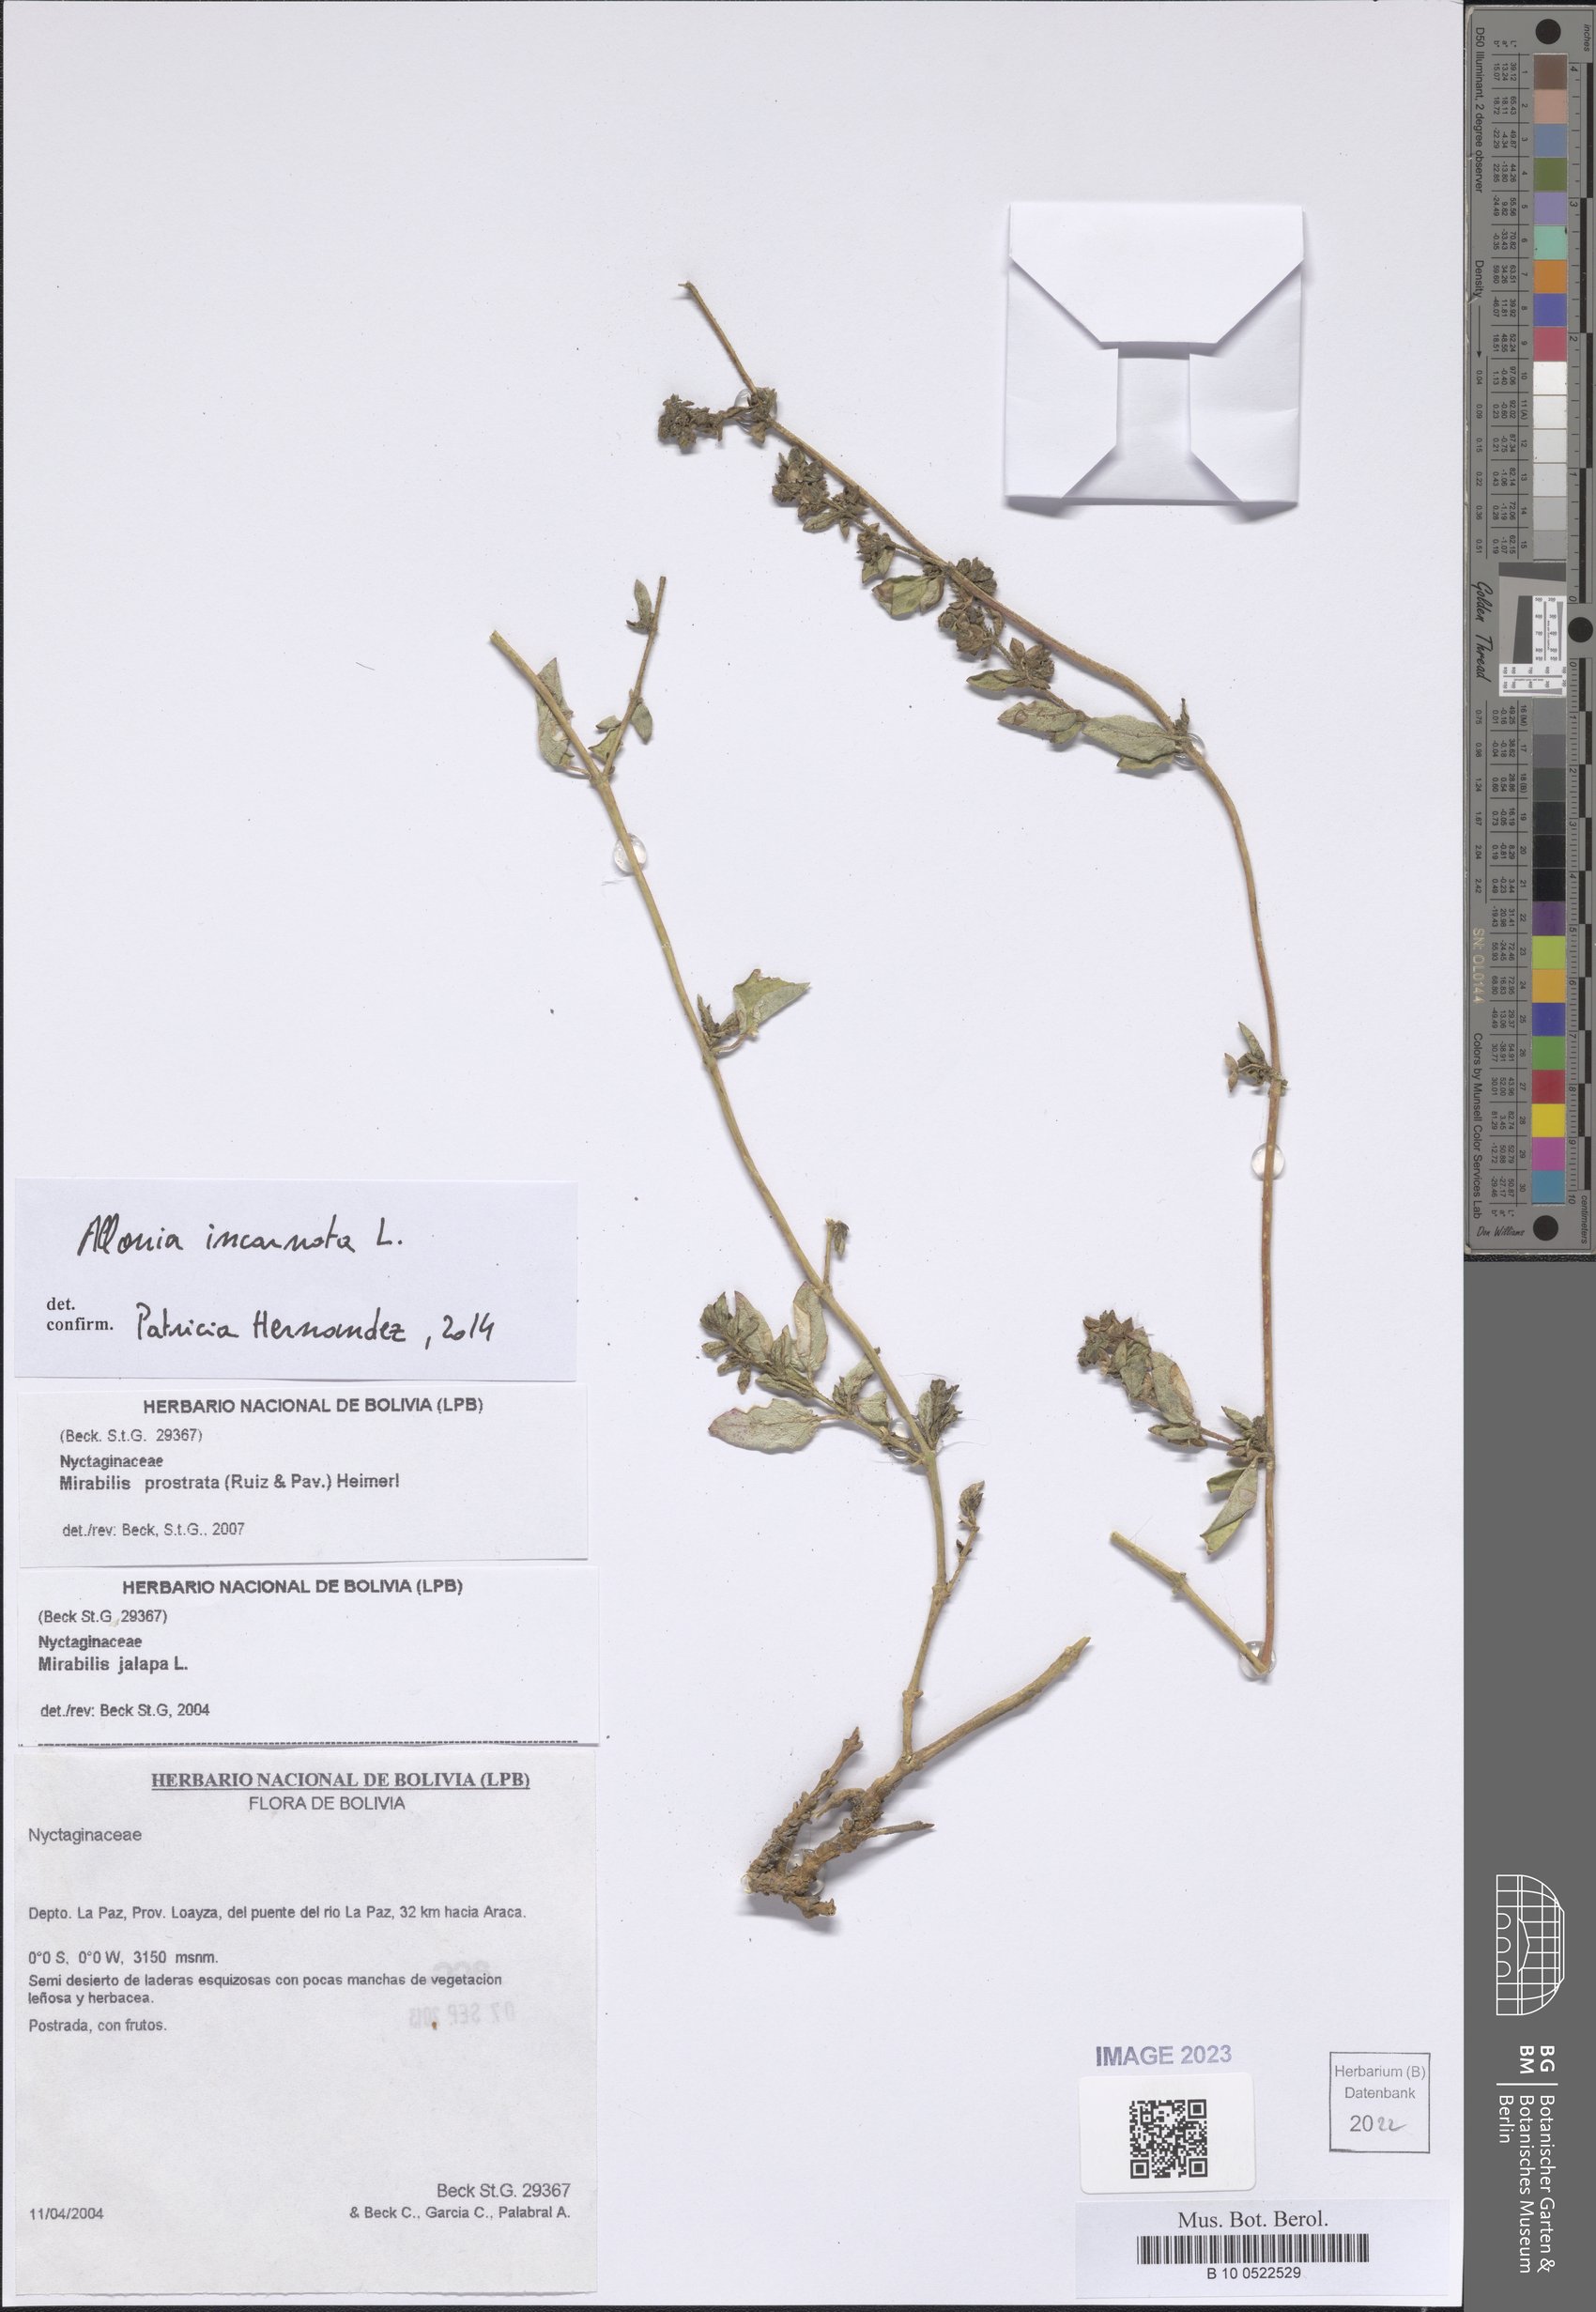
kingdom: Plantae
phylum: Tracheophyta
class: Magnoliopsida
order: Caryophyllales
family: Nyctaginaceae
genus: Allionia
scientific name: Allionia incarnata
